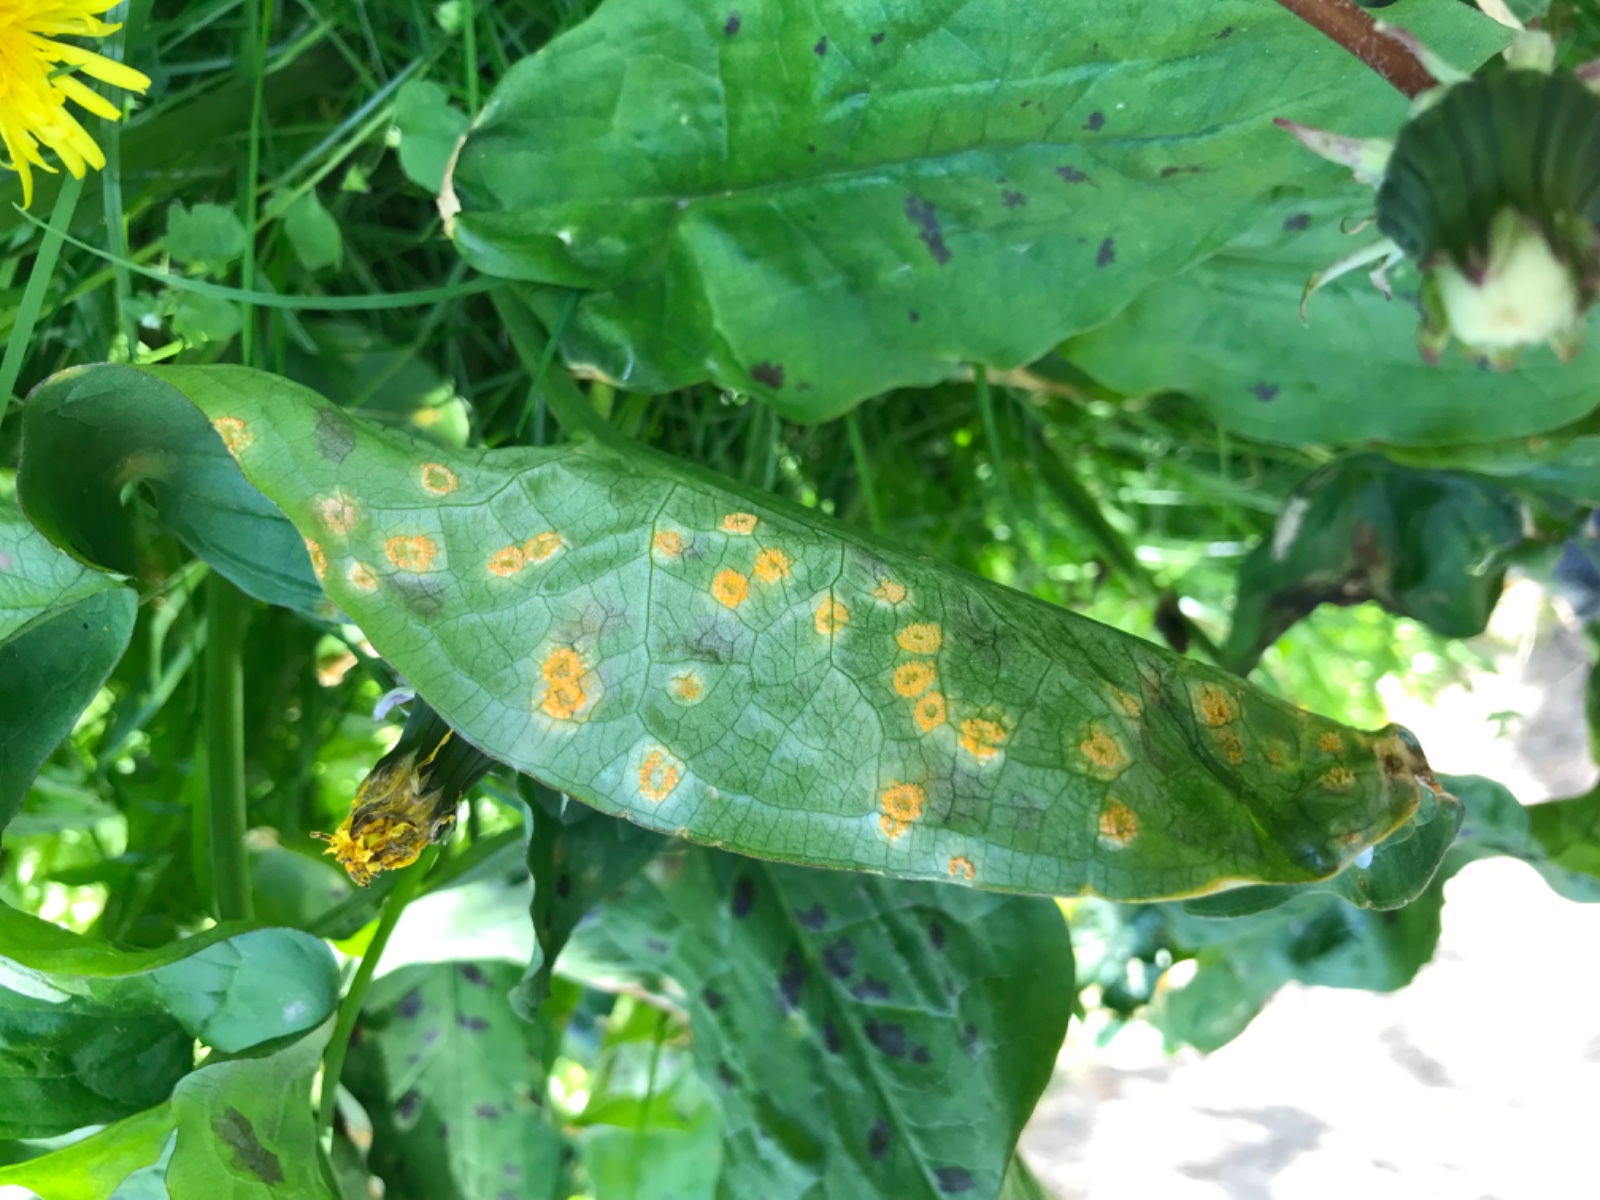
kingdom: Fungi
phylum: Basidiomycota
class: Pucciniomycetes
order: Pucciniales
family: Pucciniaceae
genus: Puccinia
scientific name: Puccinia sessilis
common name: Arum rust
